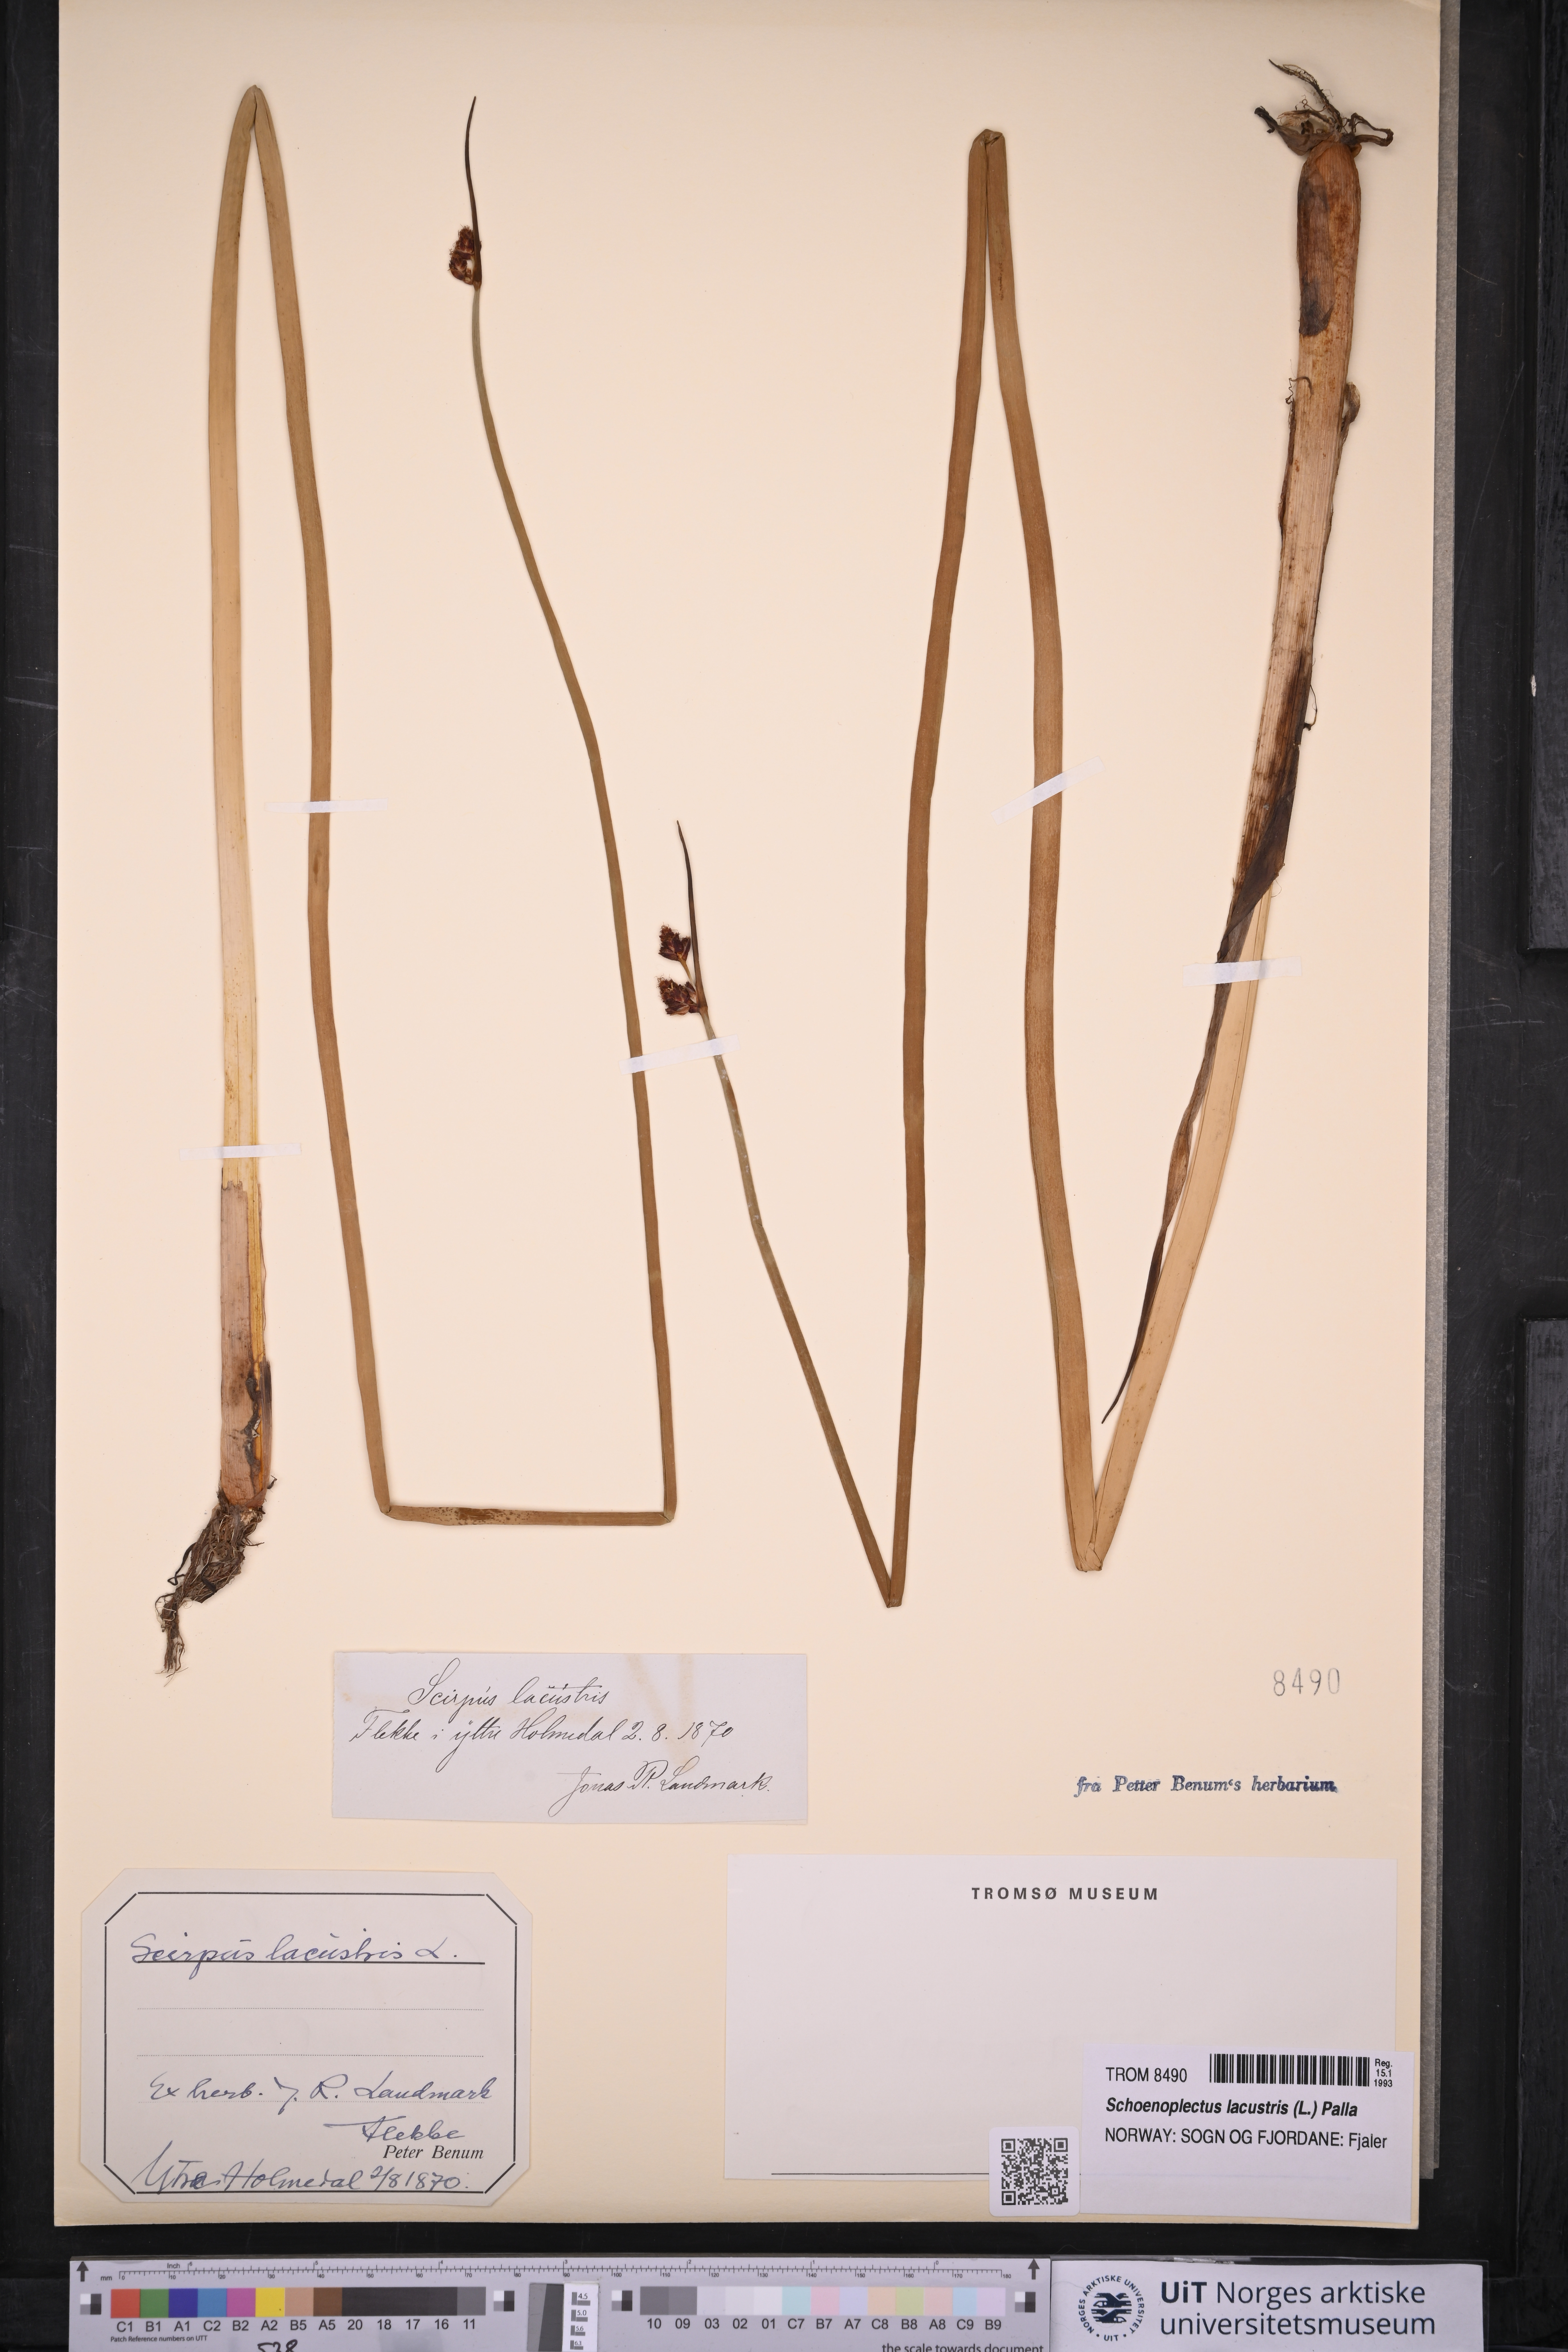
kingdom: Plantae
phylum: Tracheophyta
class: Liliopsida
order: Poales
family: Cyperaceae
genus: Schoenoplectus
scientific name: Schoenoplectus lacustris
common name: Common club-rush
